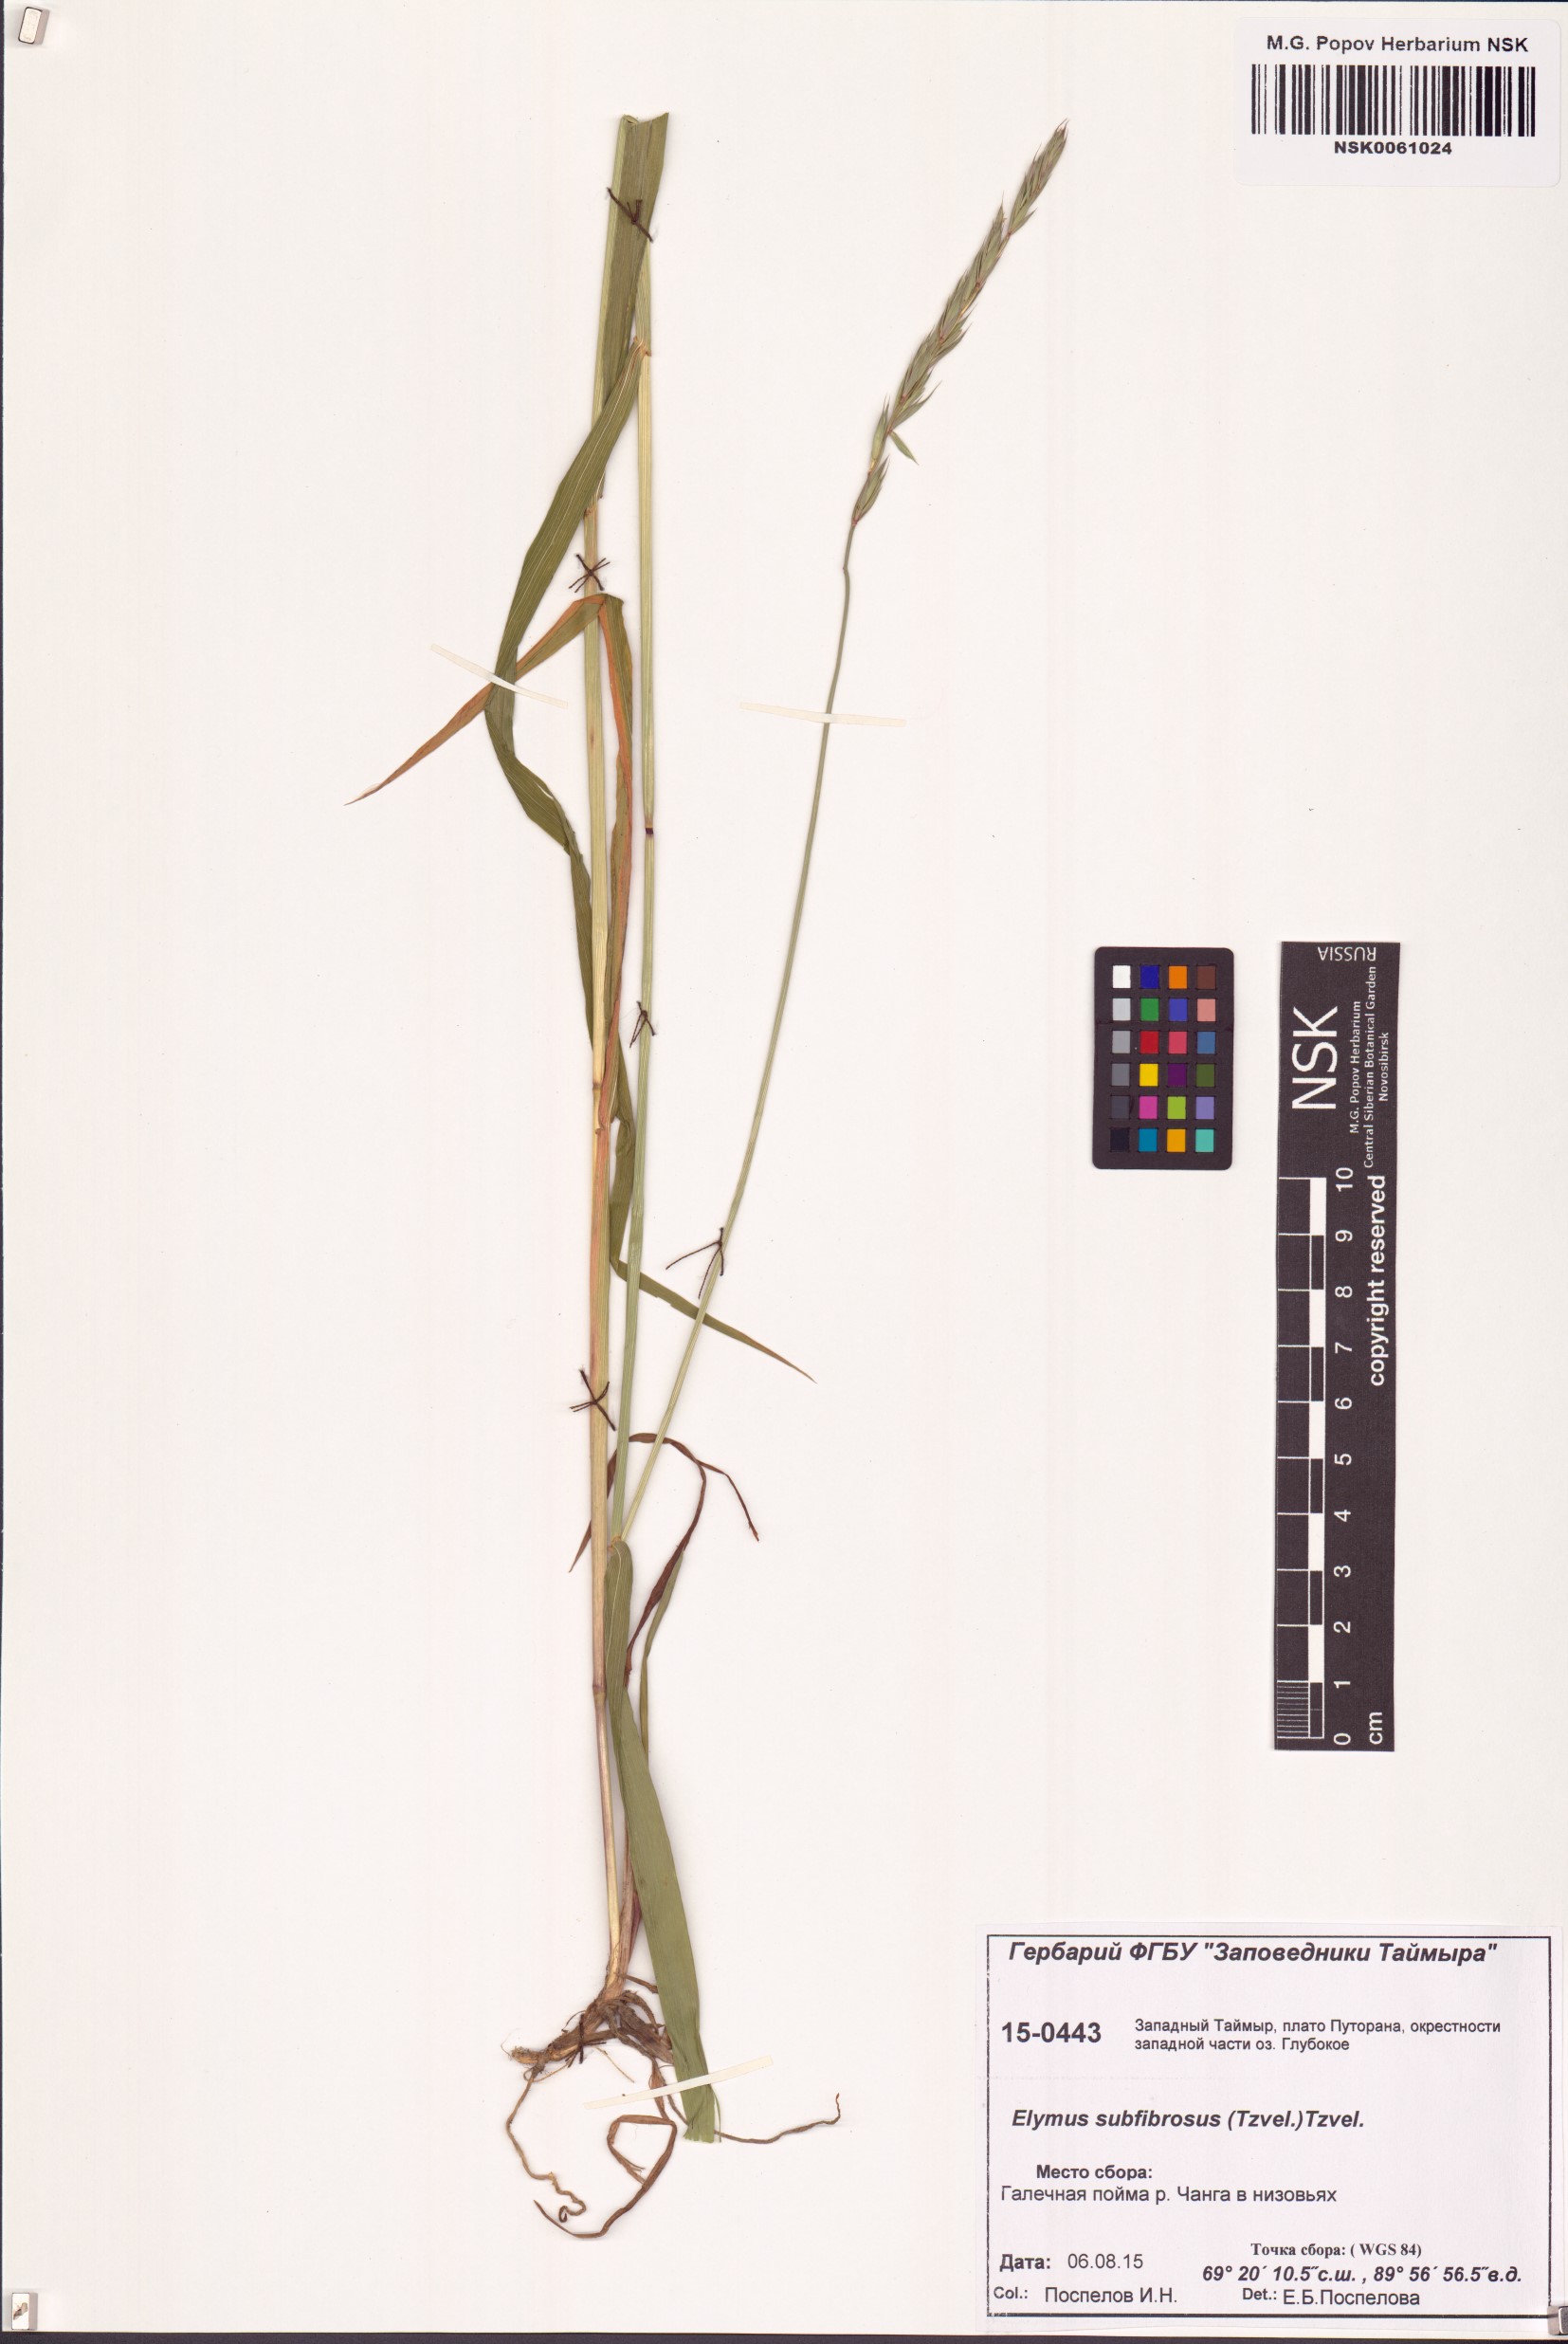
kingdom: Plantae
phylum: Tracheophyta
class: Liliopsida
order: Poales
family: Poaceae
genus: Elymus
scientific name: Elymus fibrosus
